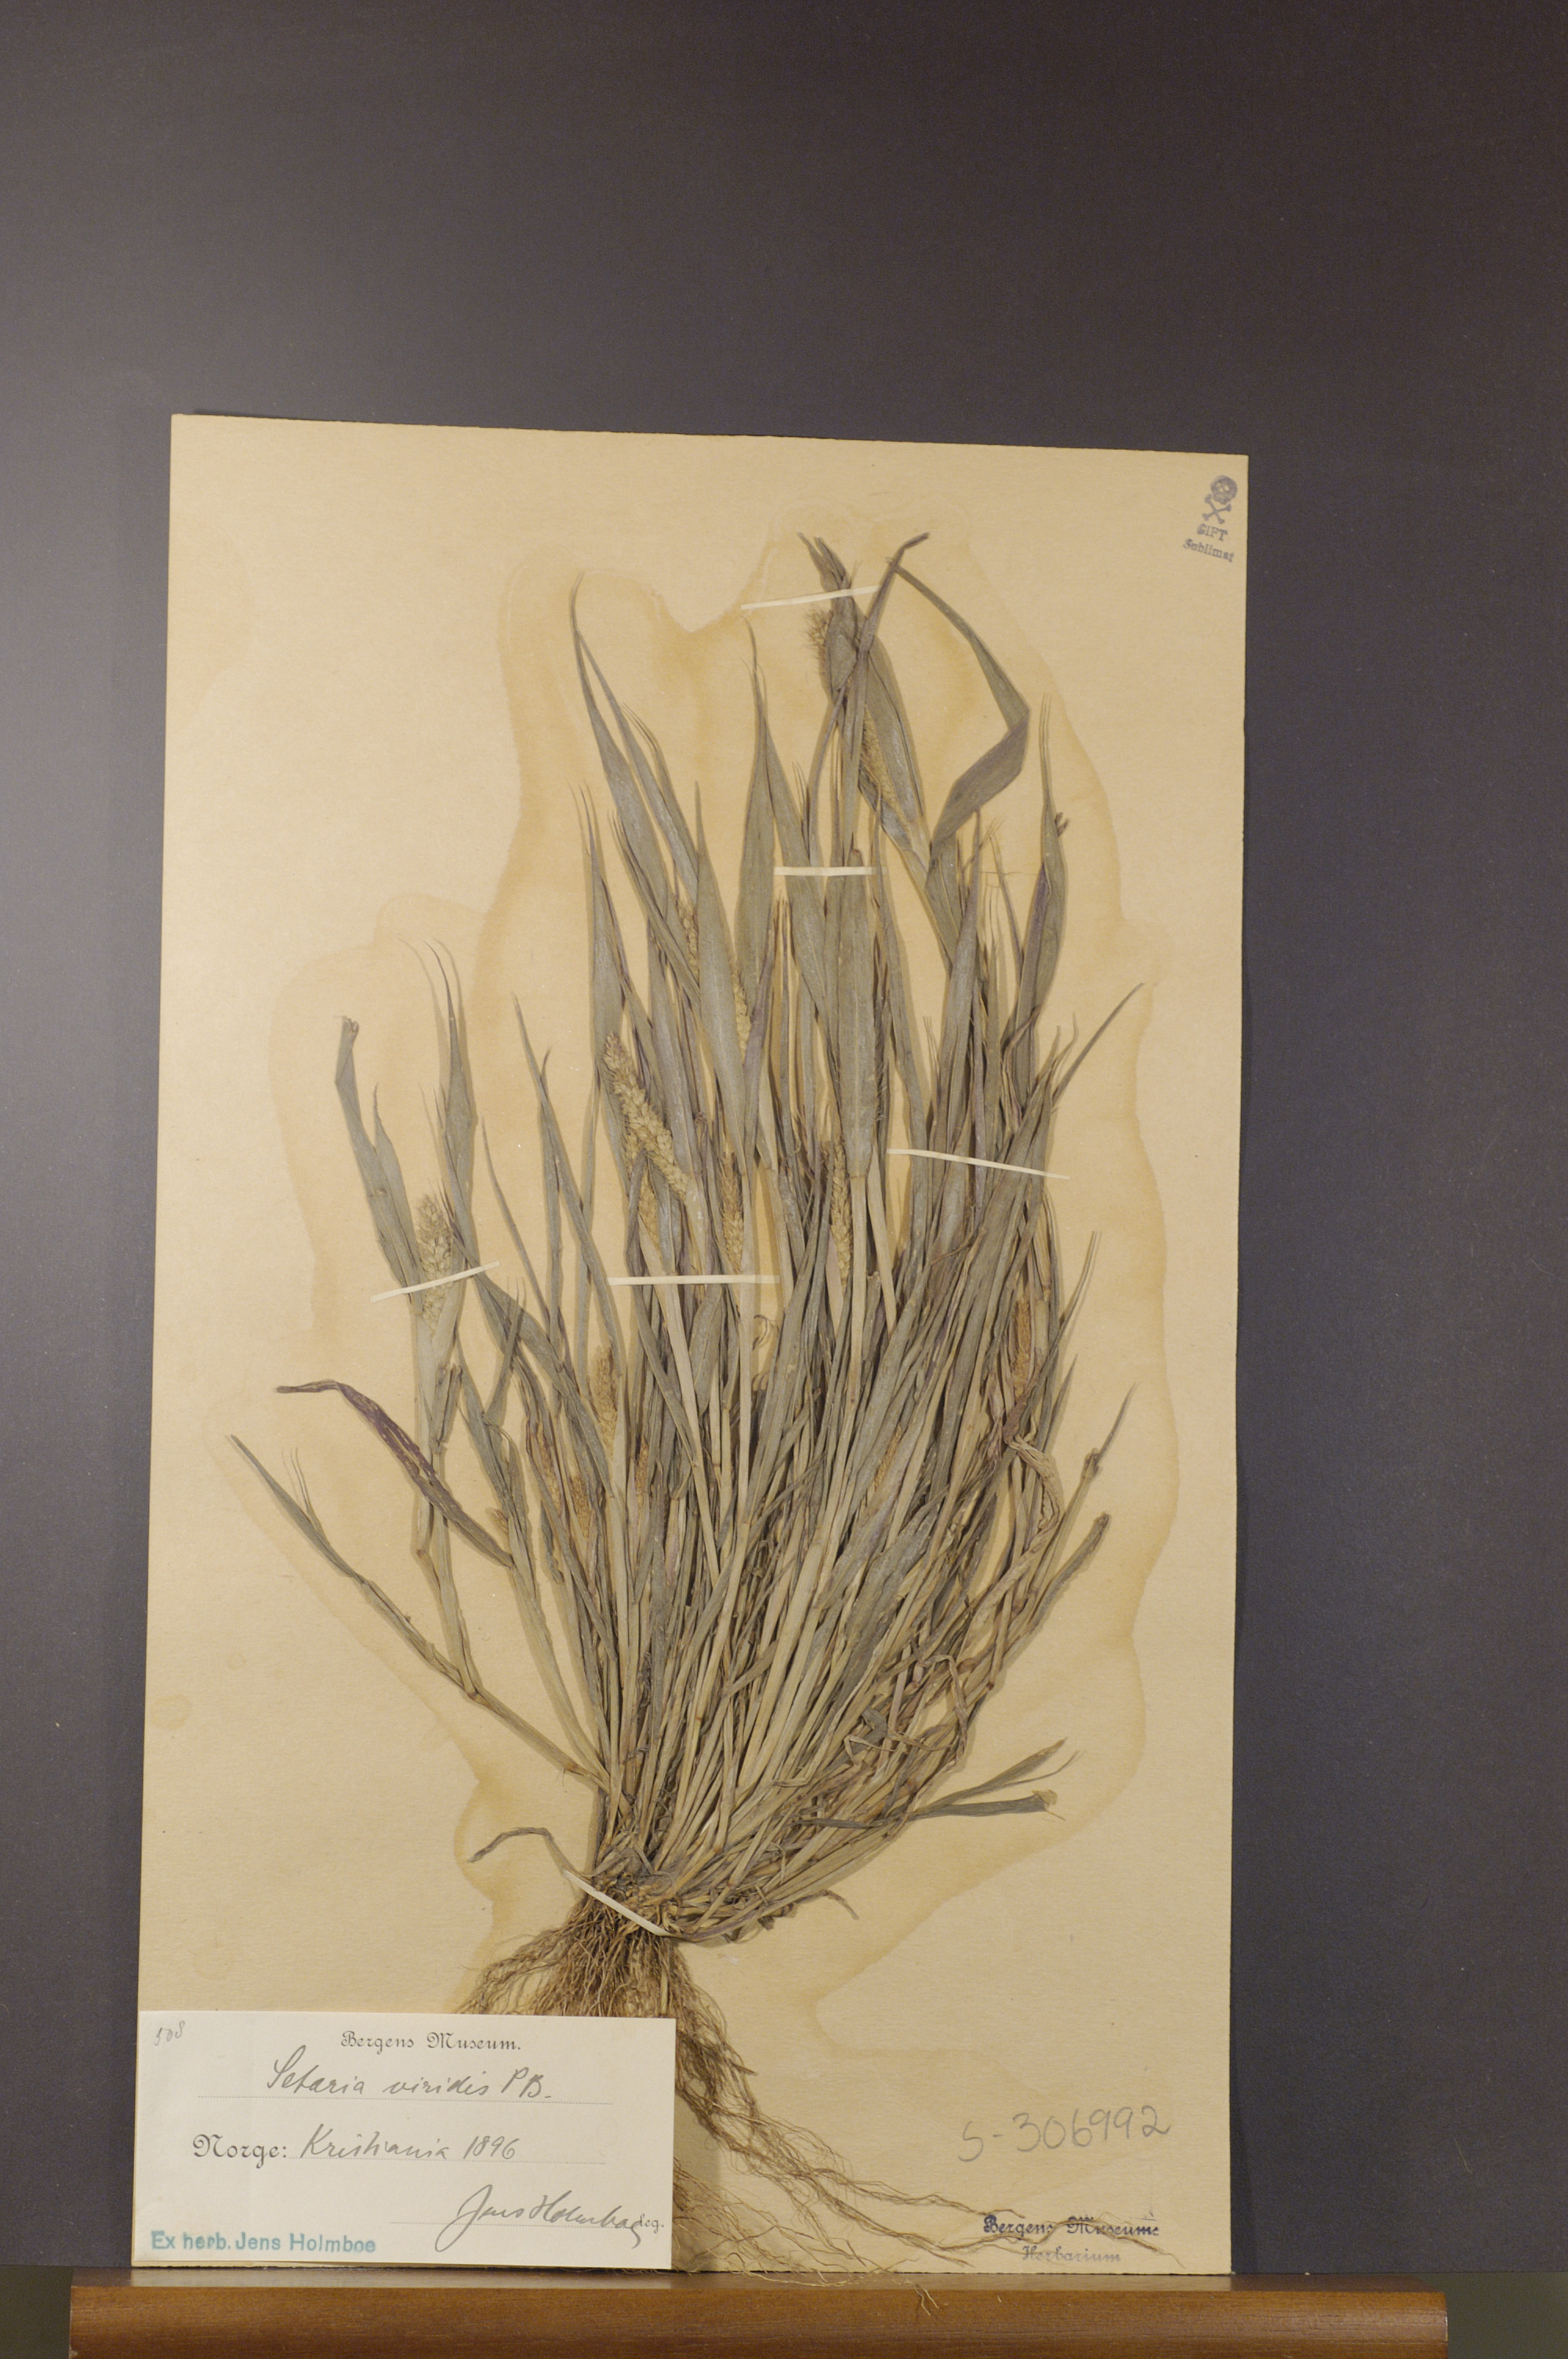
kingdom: Plantae
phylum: Tracheophyta
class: Liliopsida
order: Poales
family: Poaceae
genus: Setaria
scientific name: Setaria viridis
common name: Green bristlegrass
